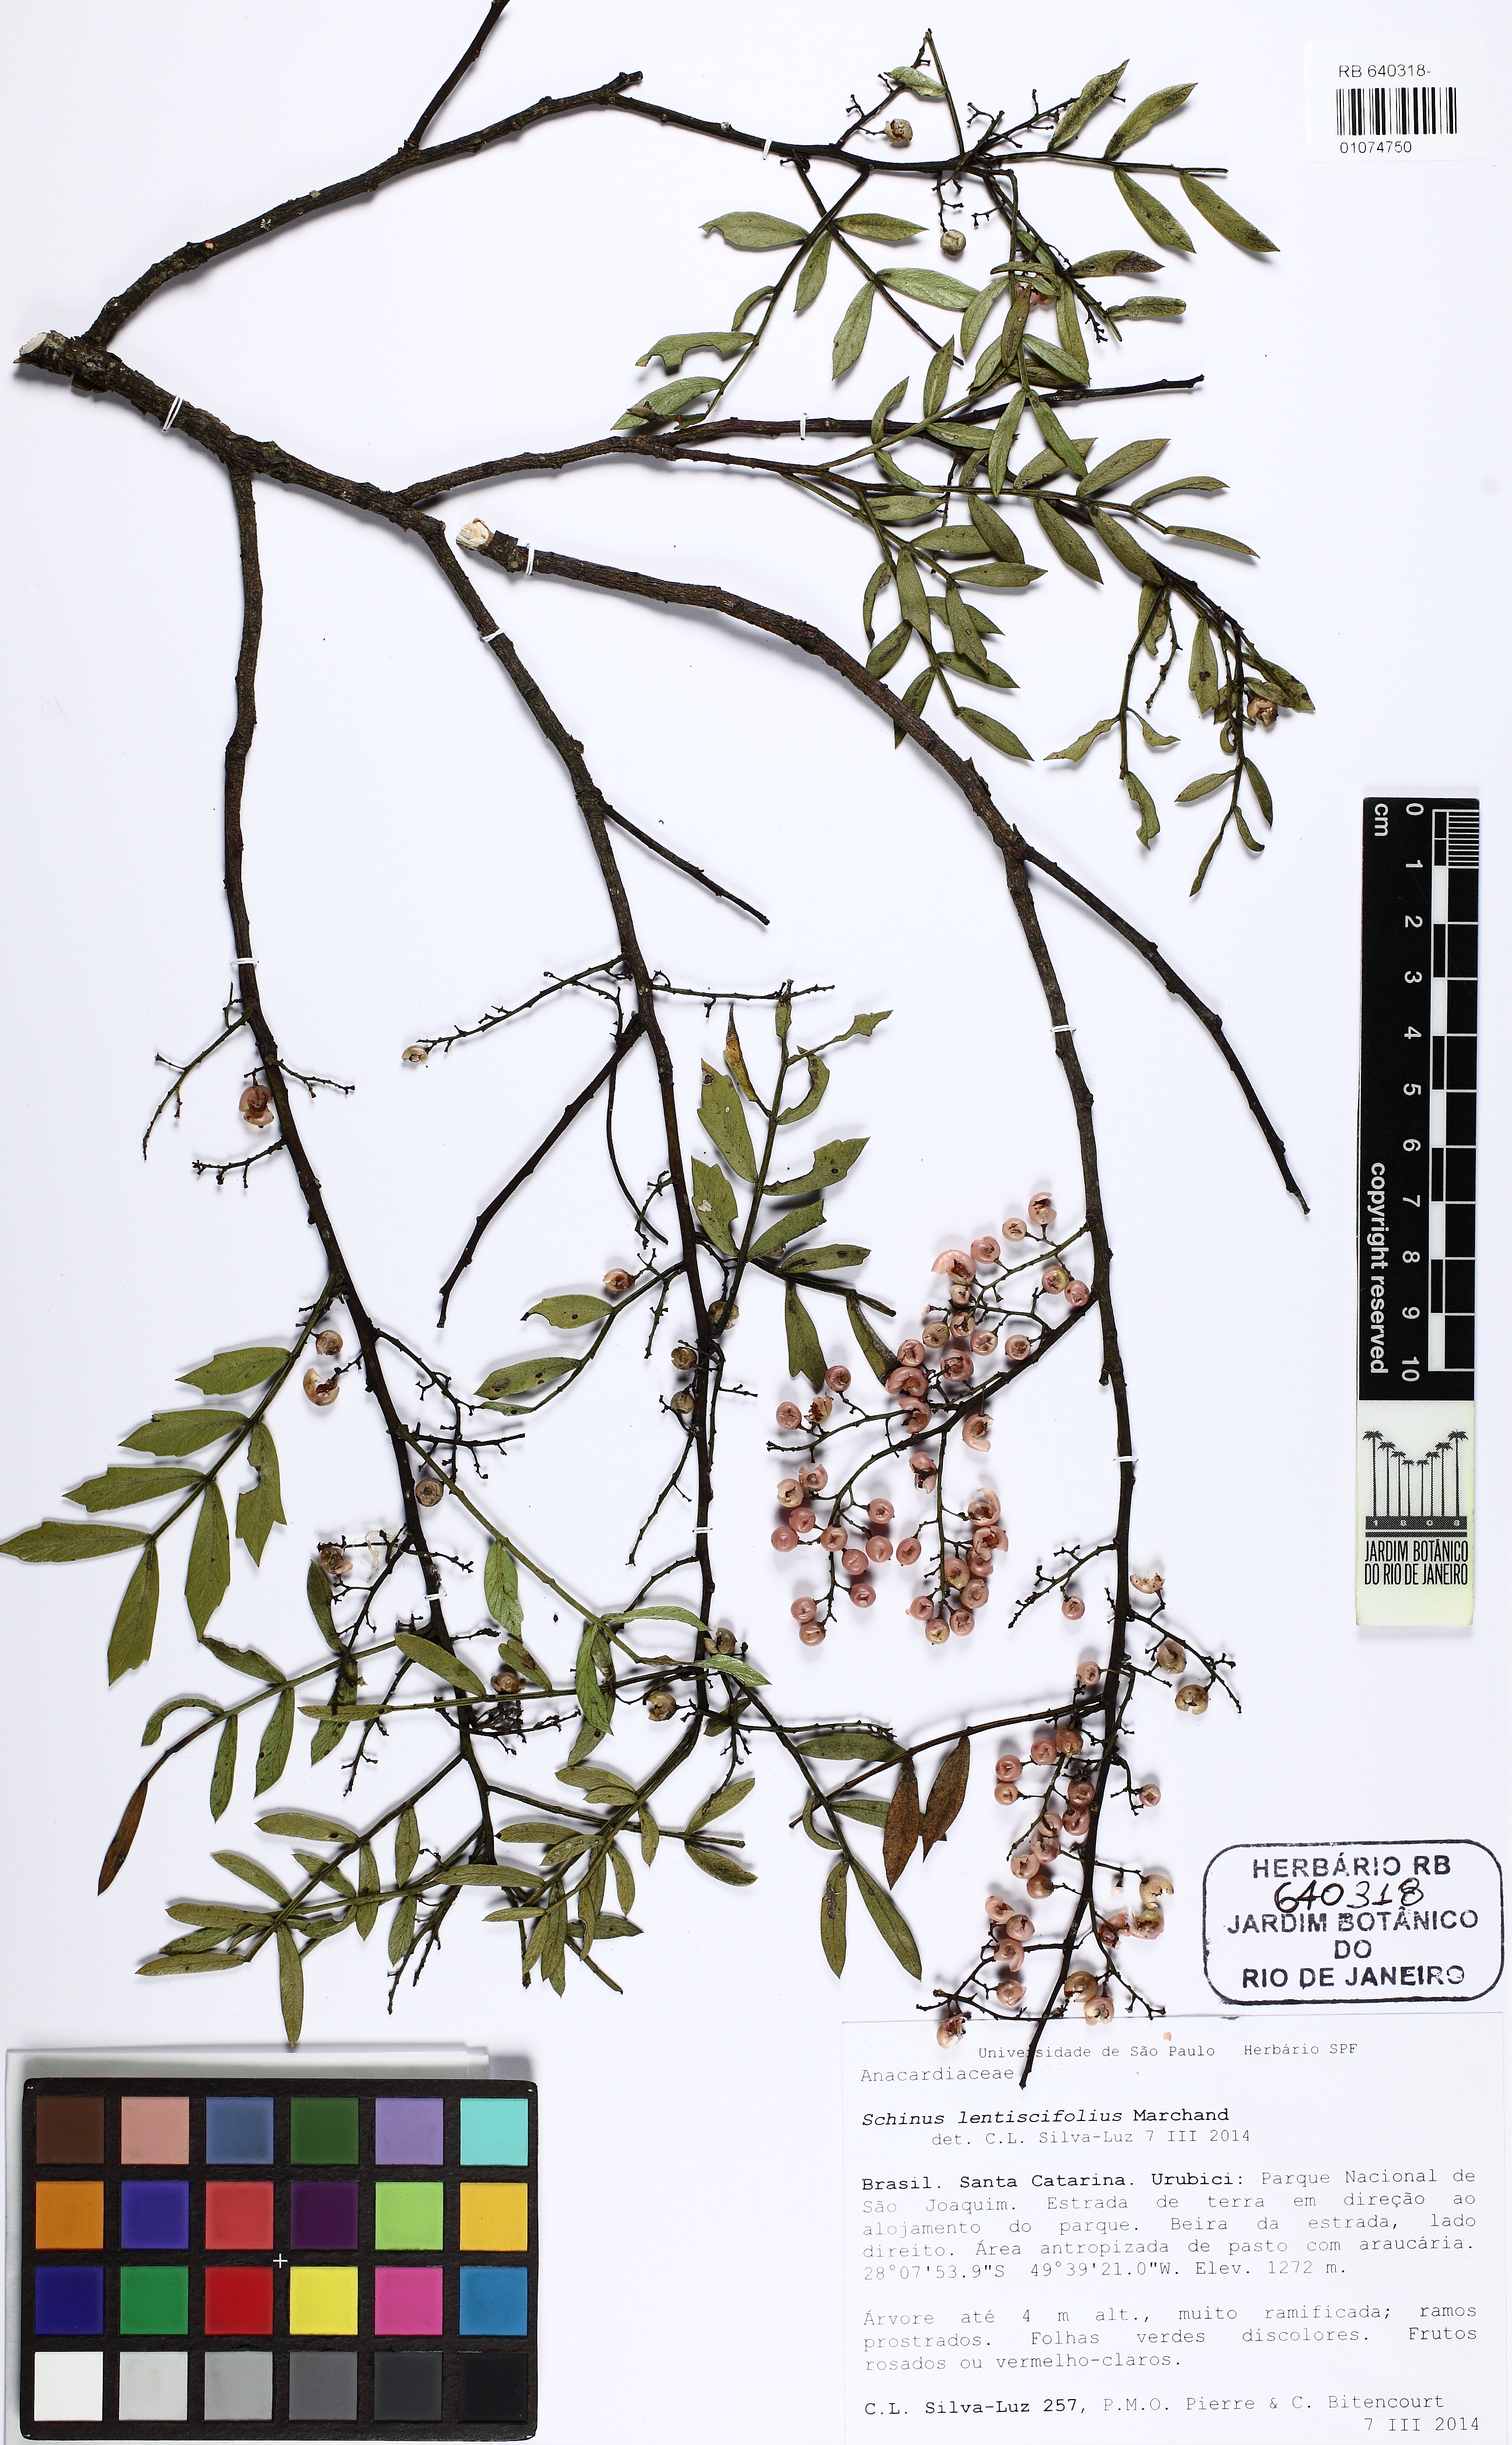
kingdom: Plantae
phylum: Tracheophyta
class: Magnoliopsida
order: Sapindales
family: Anacardiaceae
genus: Schinus
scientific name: Schinus lentiscifolia
